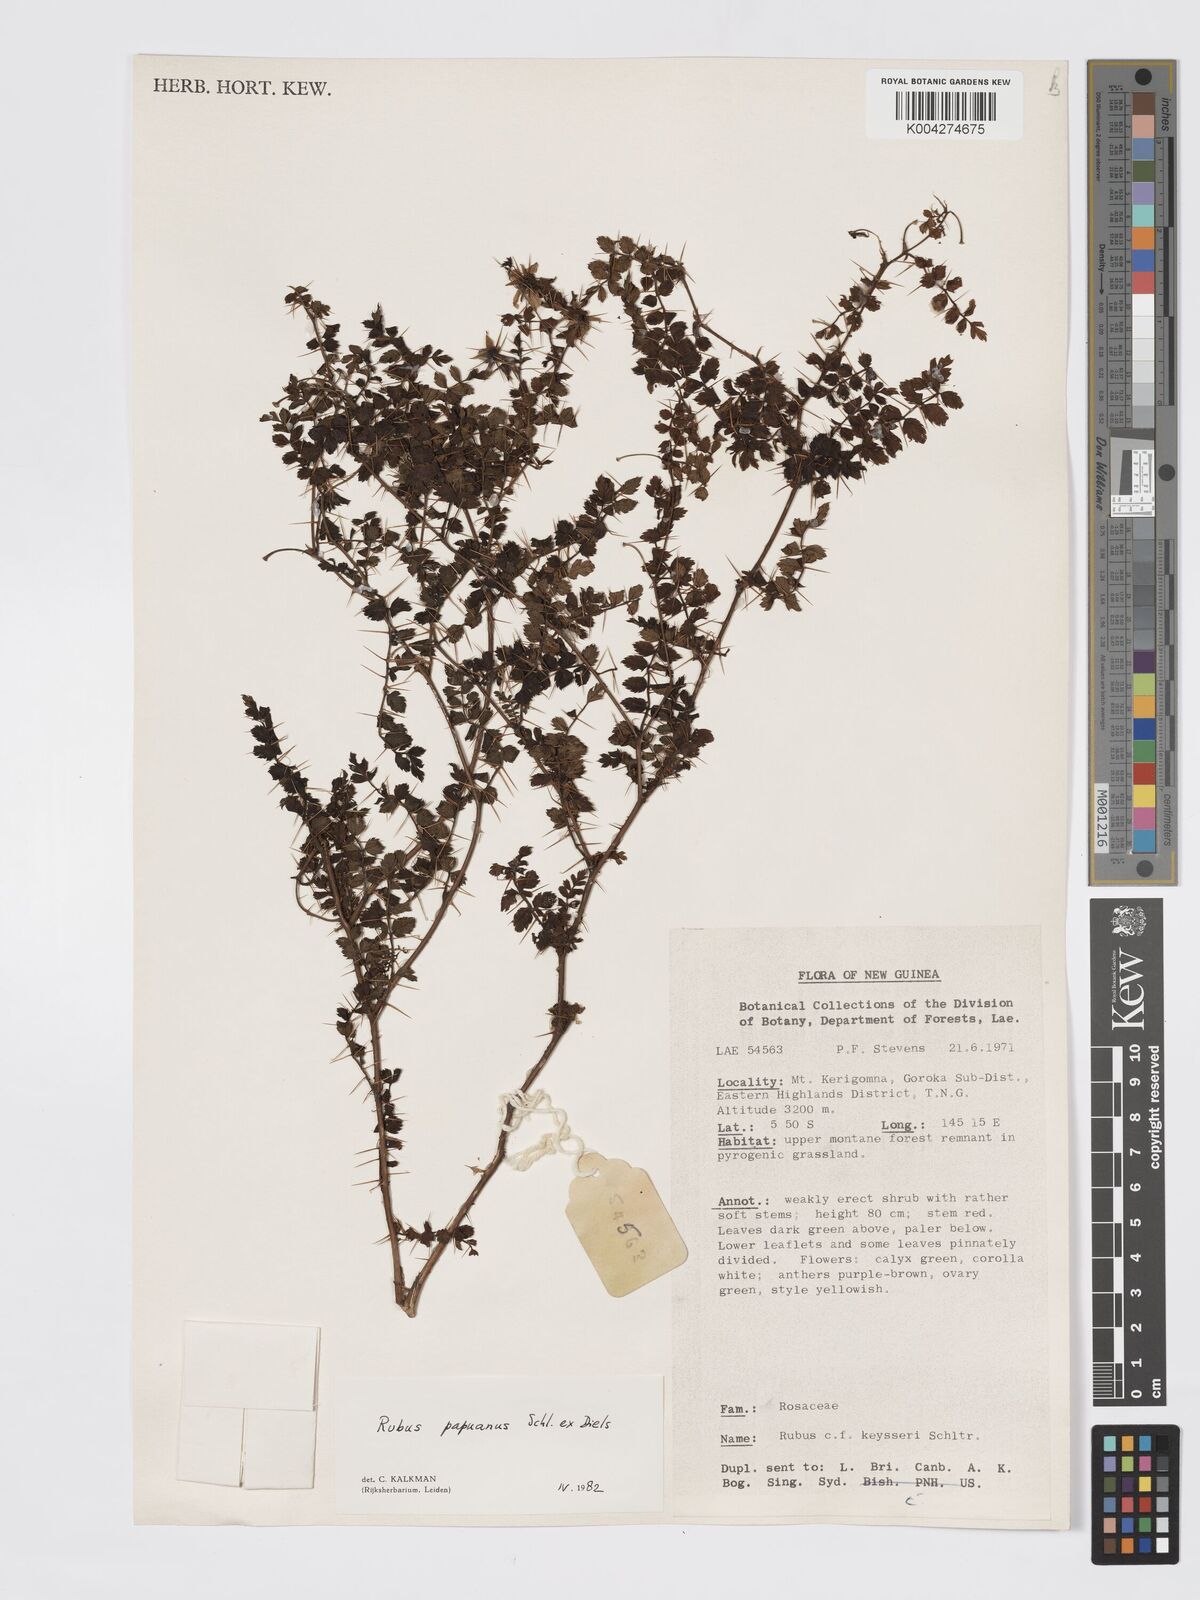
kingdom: Plantae
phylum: Tracheophyta
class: Magnoliopsida
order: Rosales
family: Rosaceae
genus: Rubus
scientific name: Rubus papuanus
